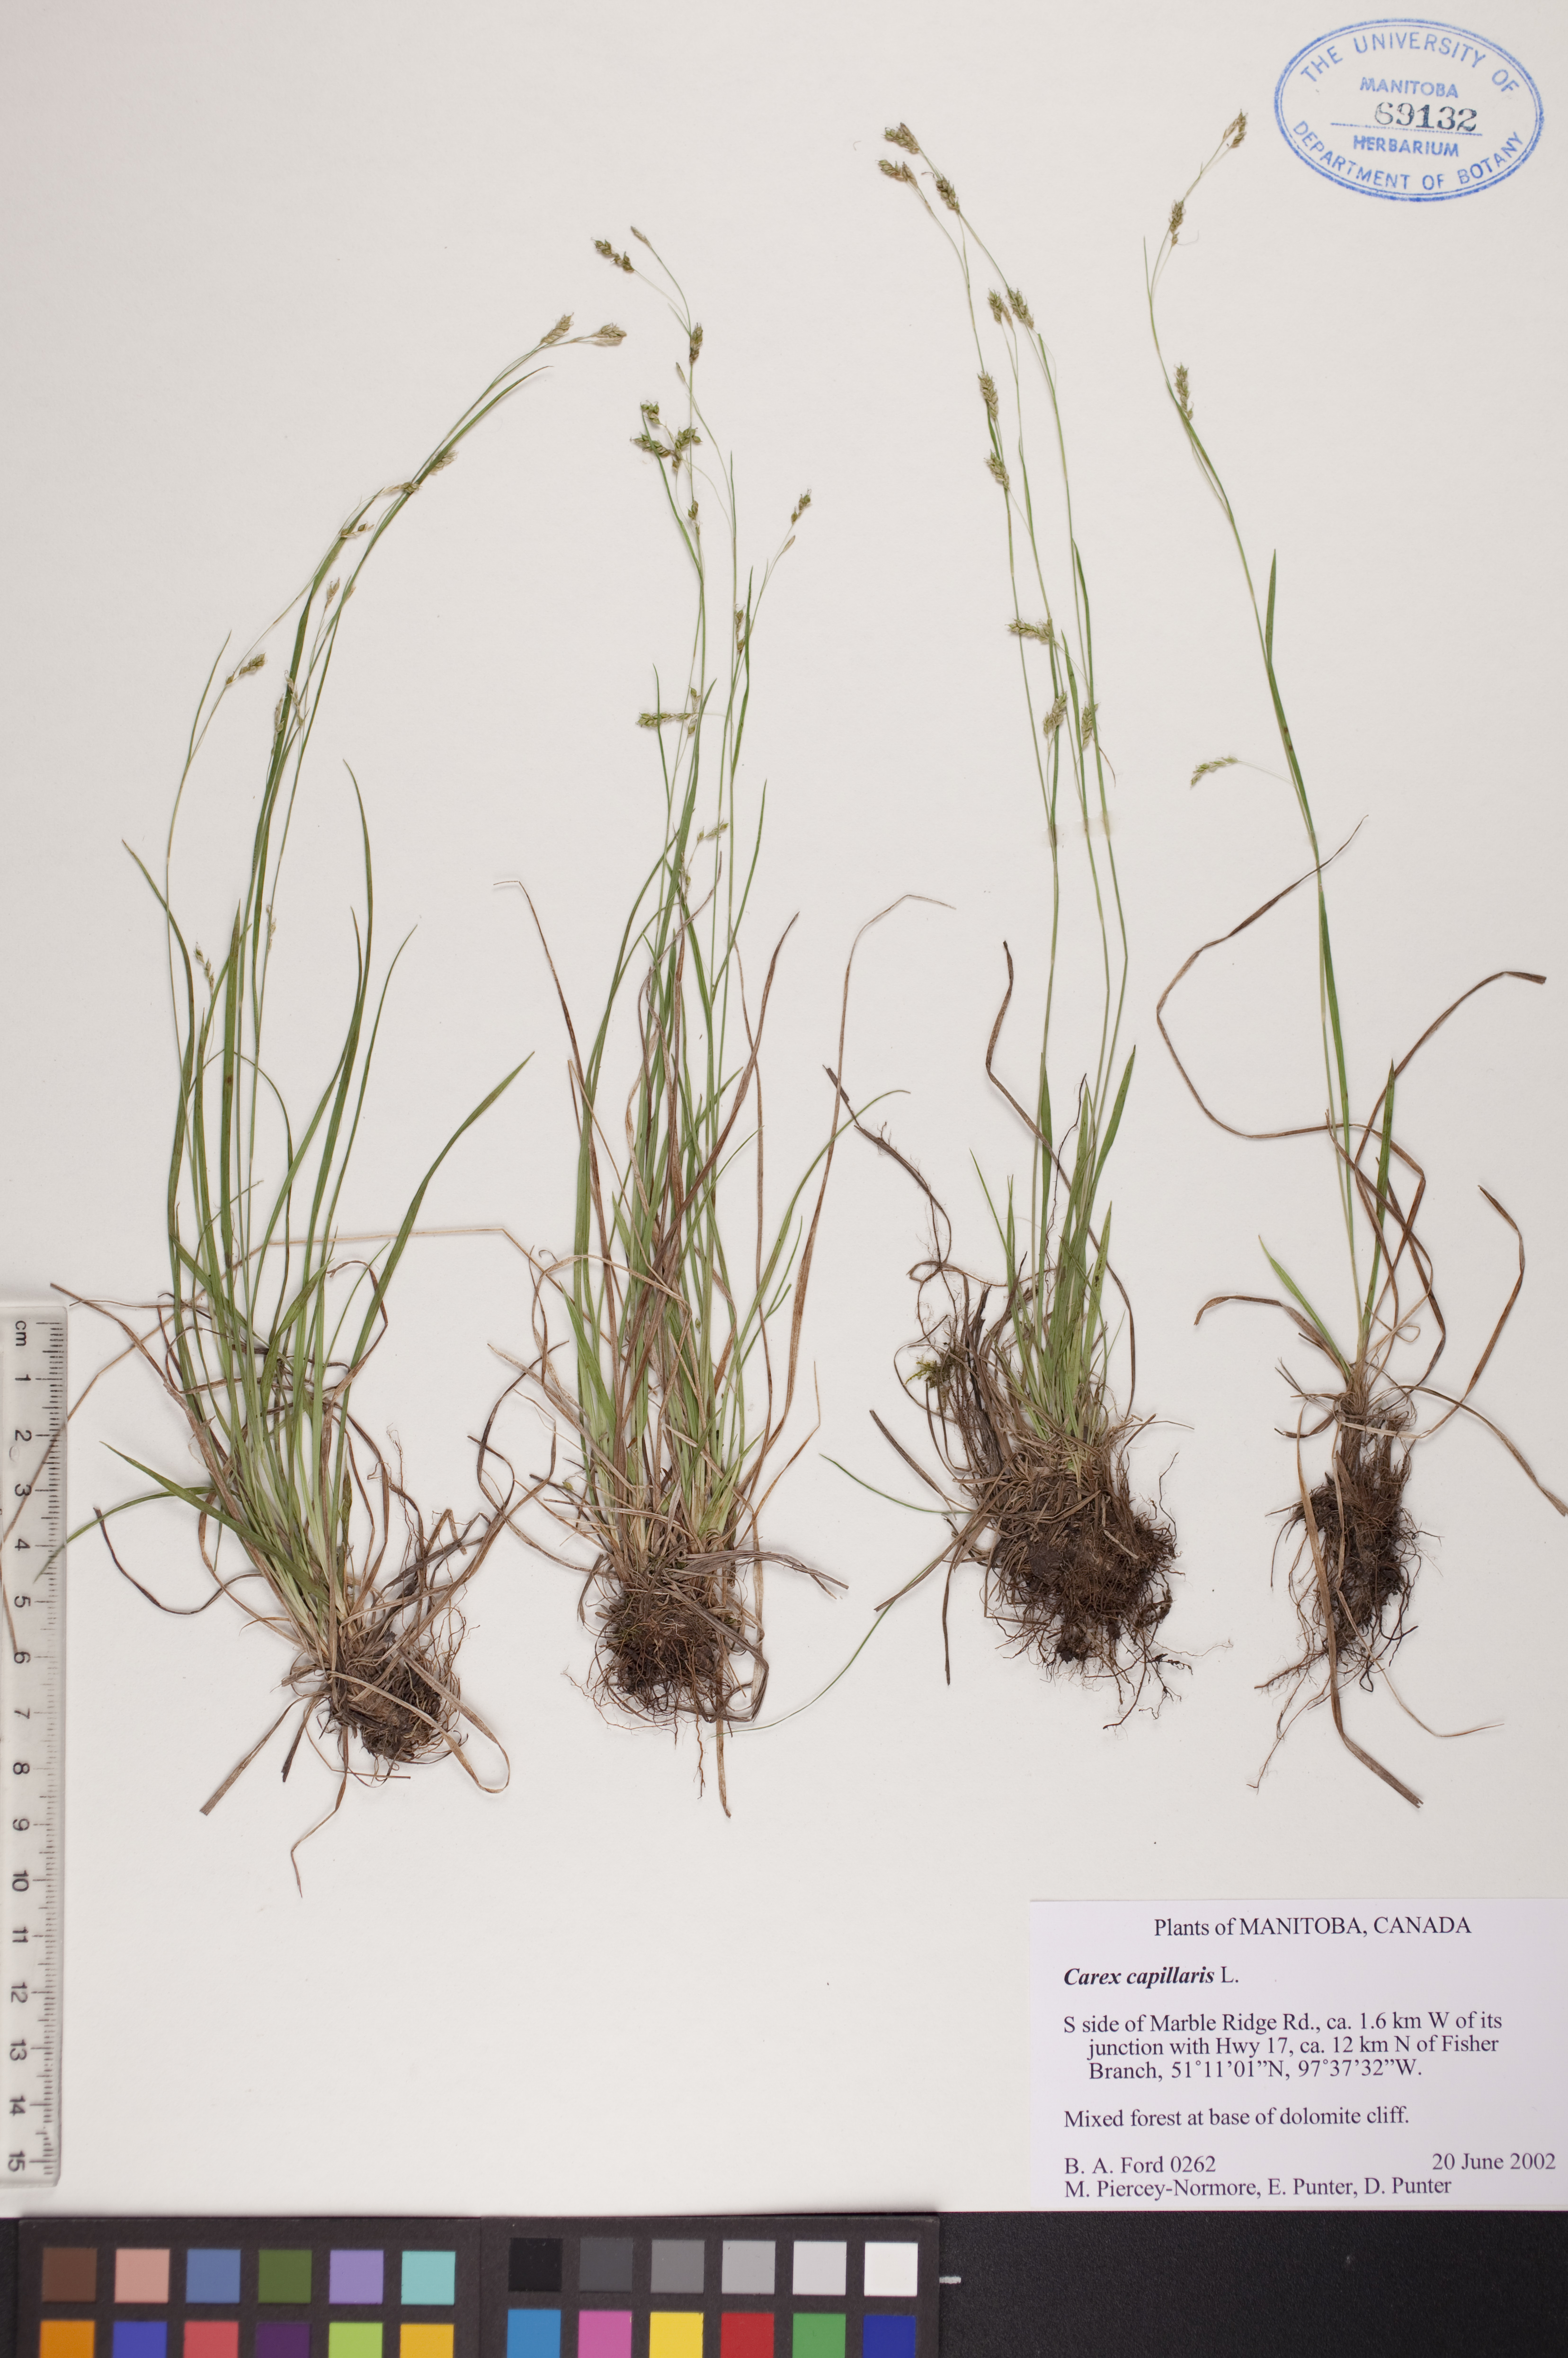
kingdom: Plantae
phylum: Tracheophyta
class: Liliopsida
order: Poales
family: Cyperaceae
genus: Carex
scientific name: Carex capillaris
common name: Hair sedge
